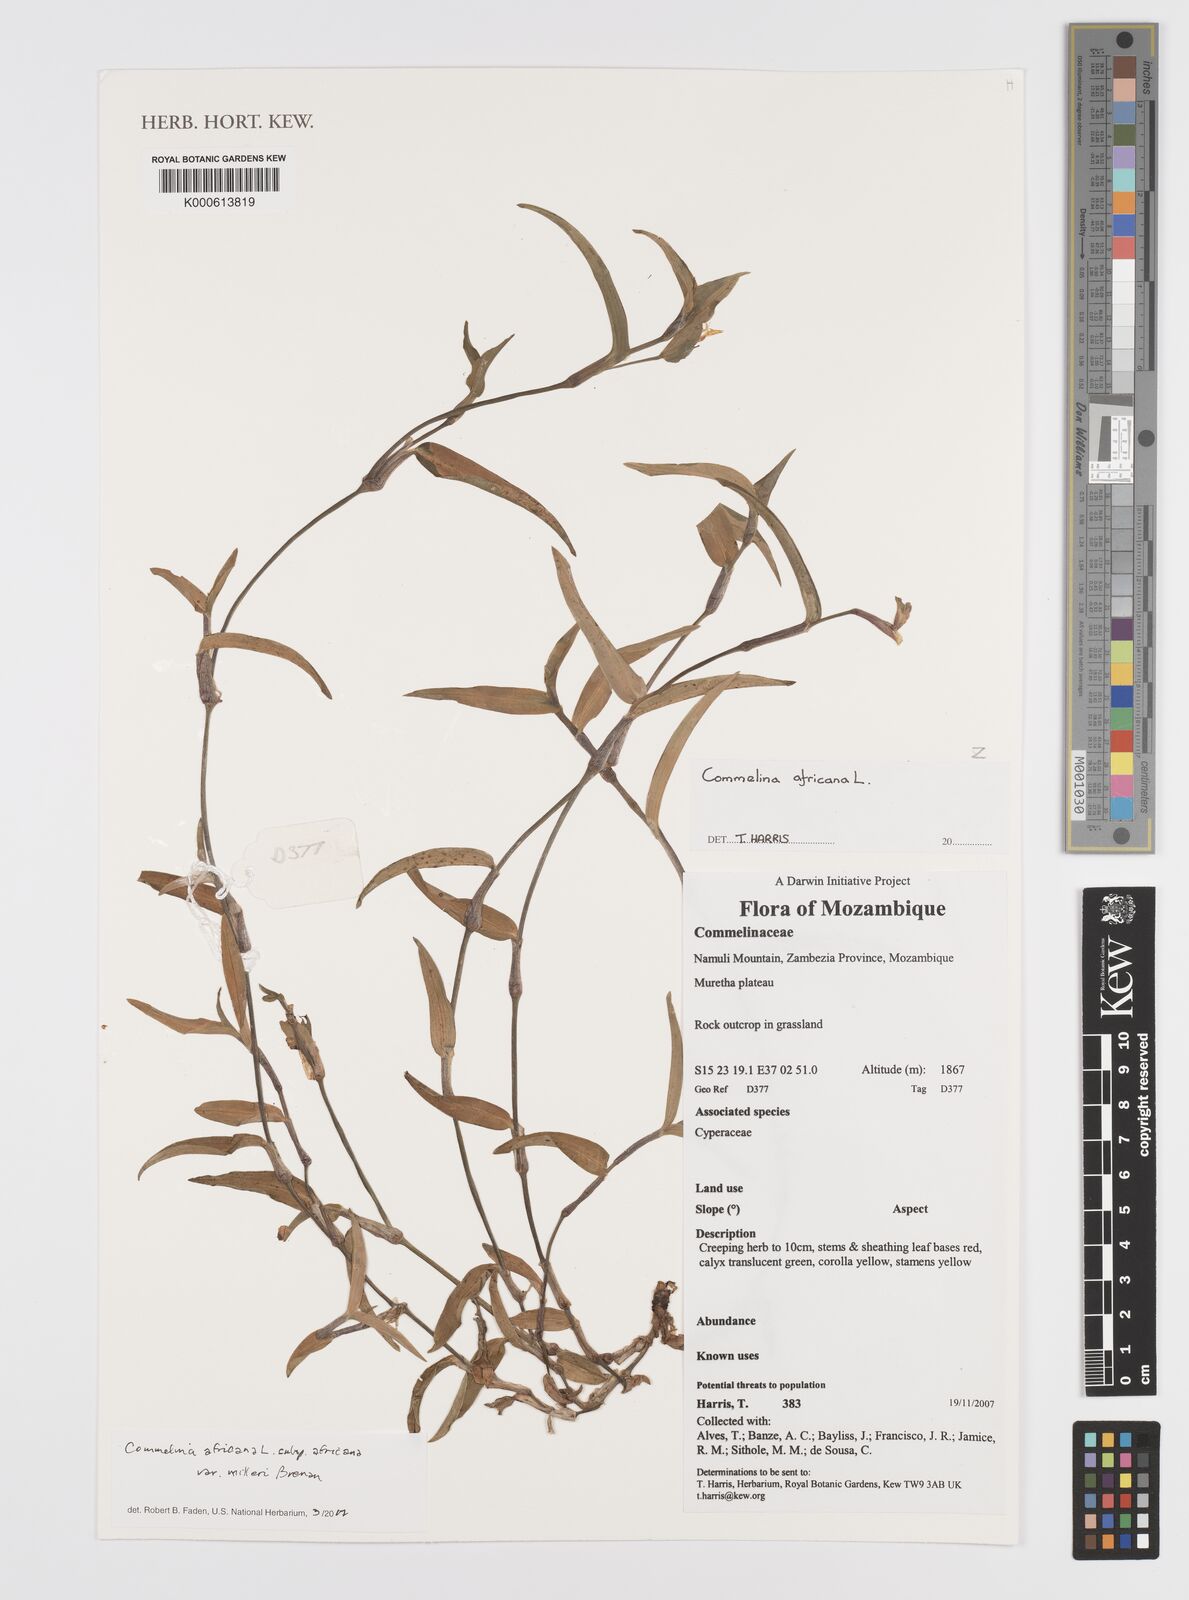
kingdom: Plantae
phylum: Tracheophyta
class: Liliopsida
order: Commelinales
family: Commelinaceae
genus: Commelina
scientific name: Commelina africana
